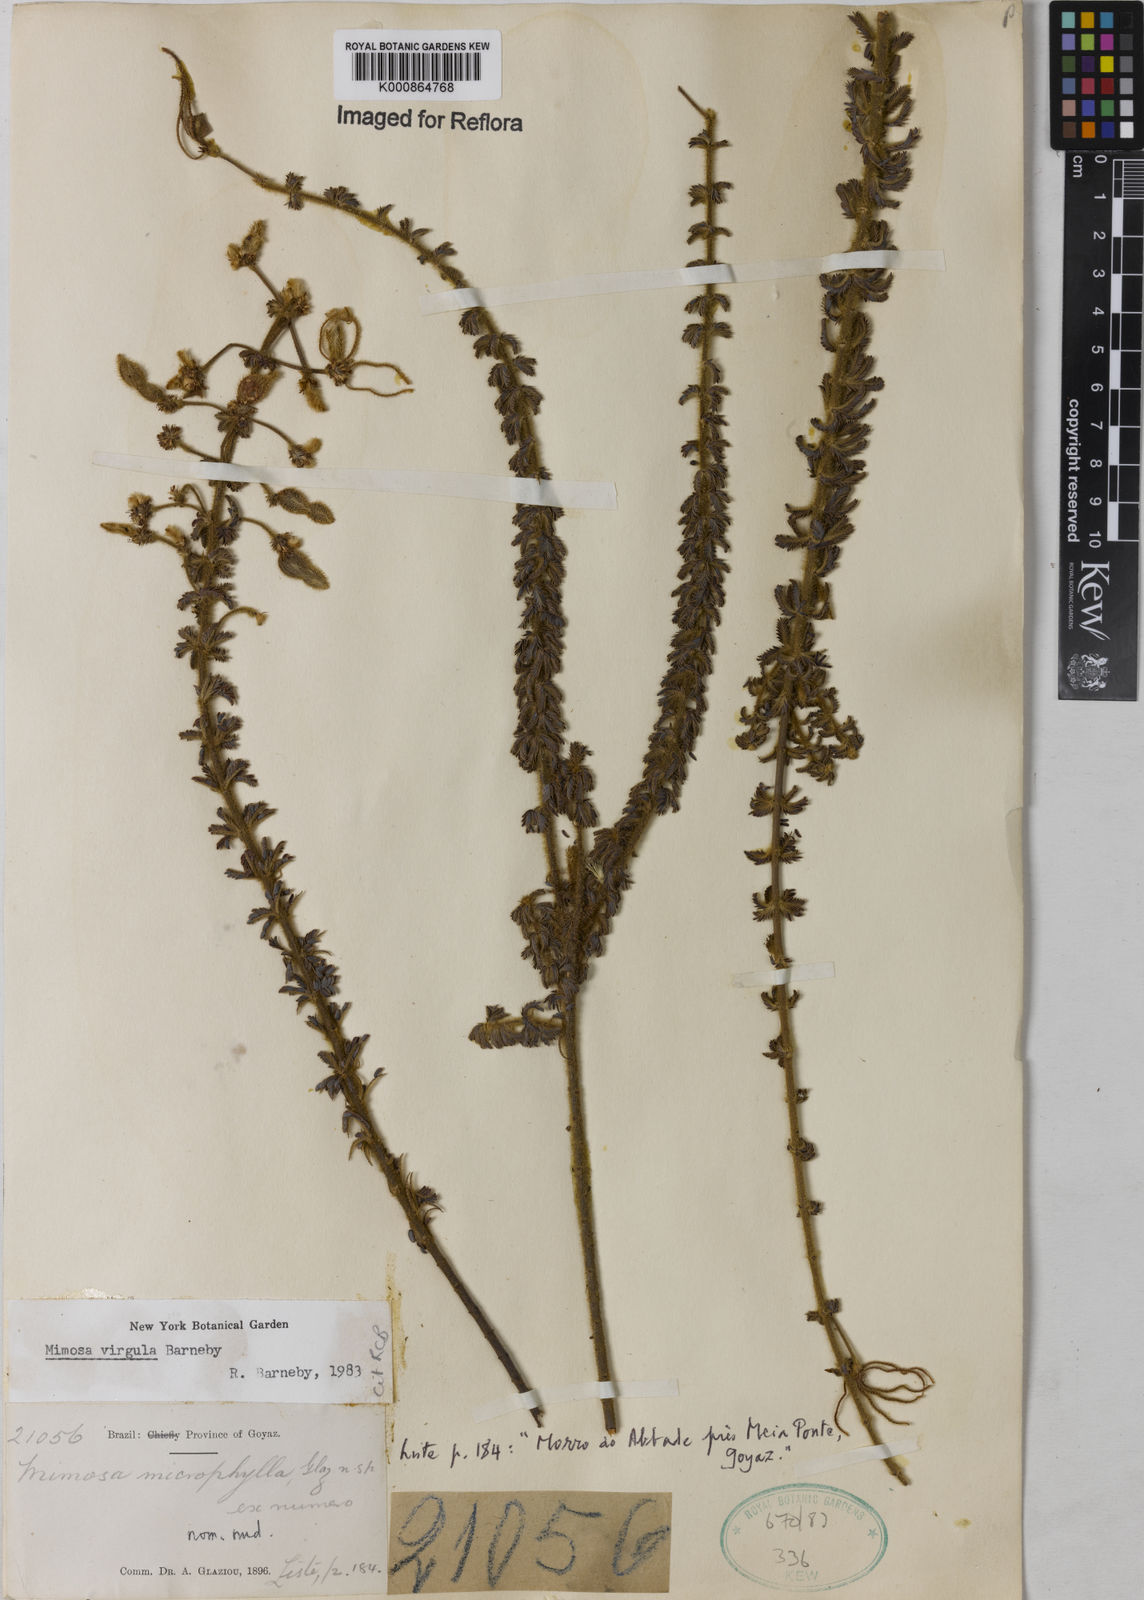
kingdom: Plantae
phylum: Tracheophyta
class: Magnoliopsida
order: Fabales
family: Fabaceae
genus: Mimosa
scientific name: Mimosa
